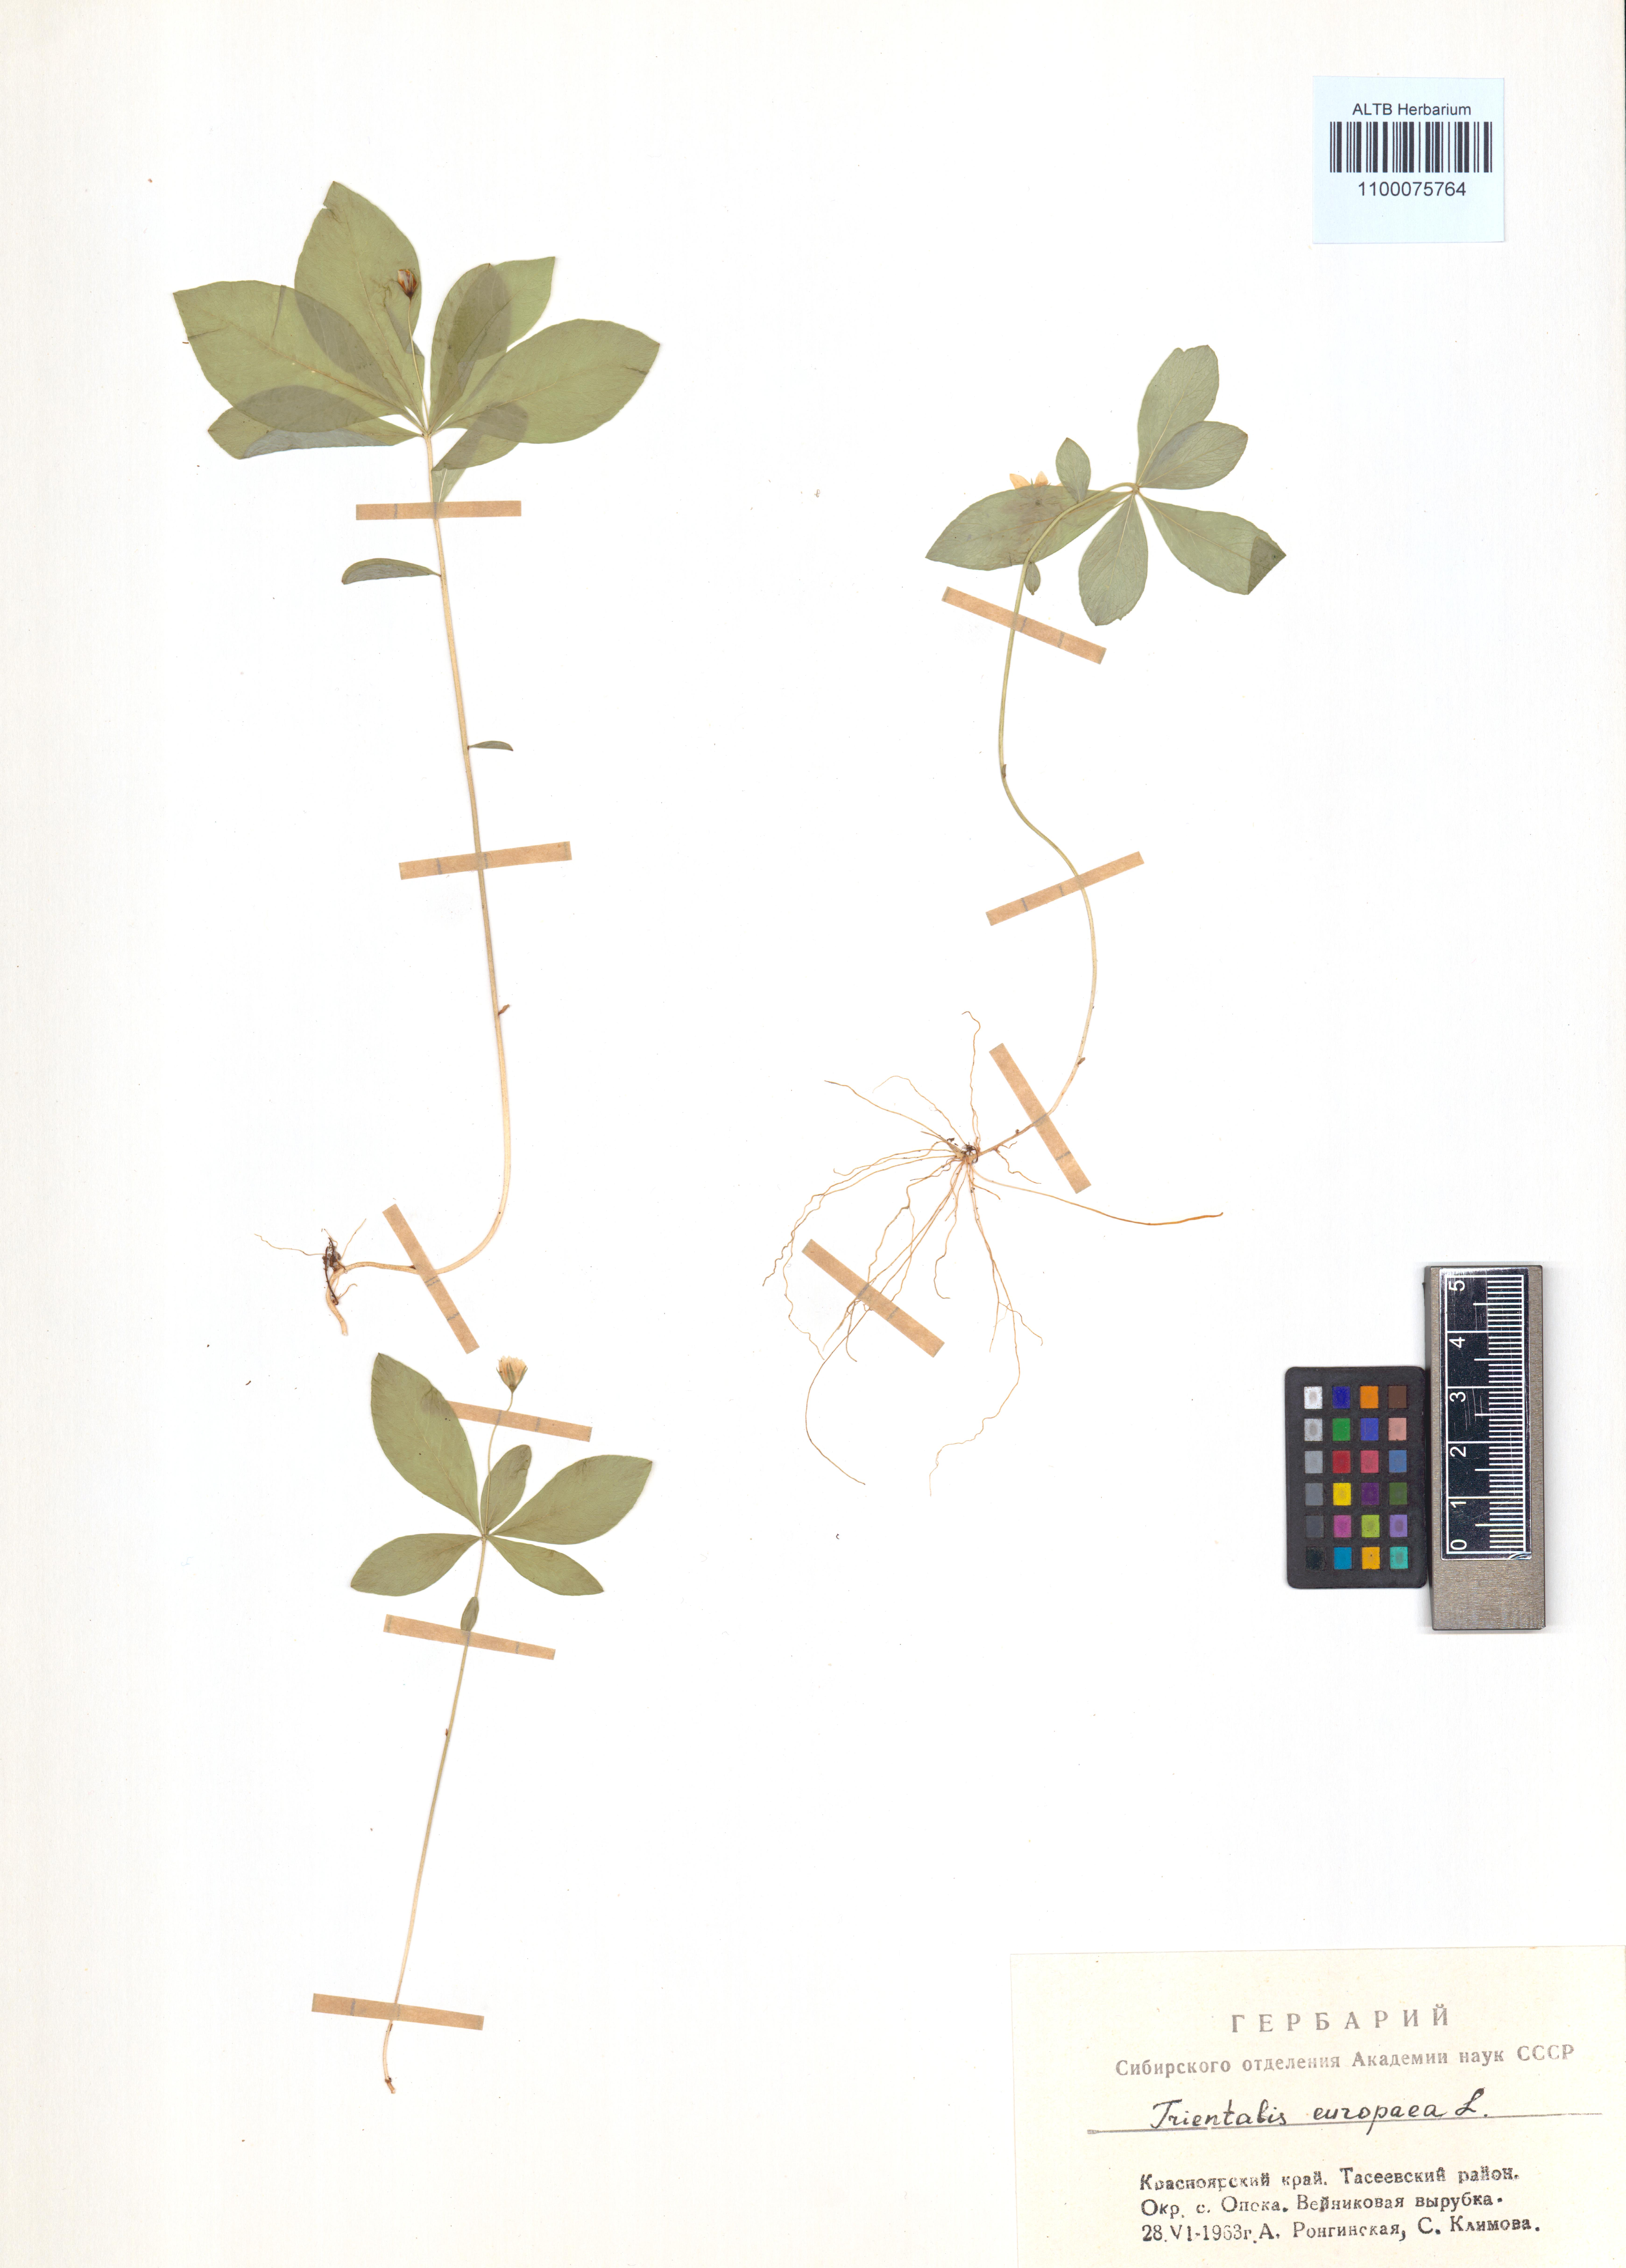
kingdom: Plantae
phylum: Tracheophyta
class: Magnoliopsida
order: Ericales
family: Primulaceae
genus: Lysimachia
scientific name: Lysimachia europaea
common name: Arctic starflower
